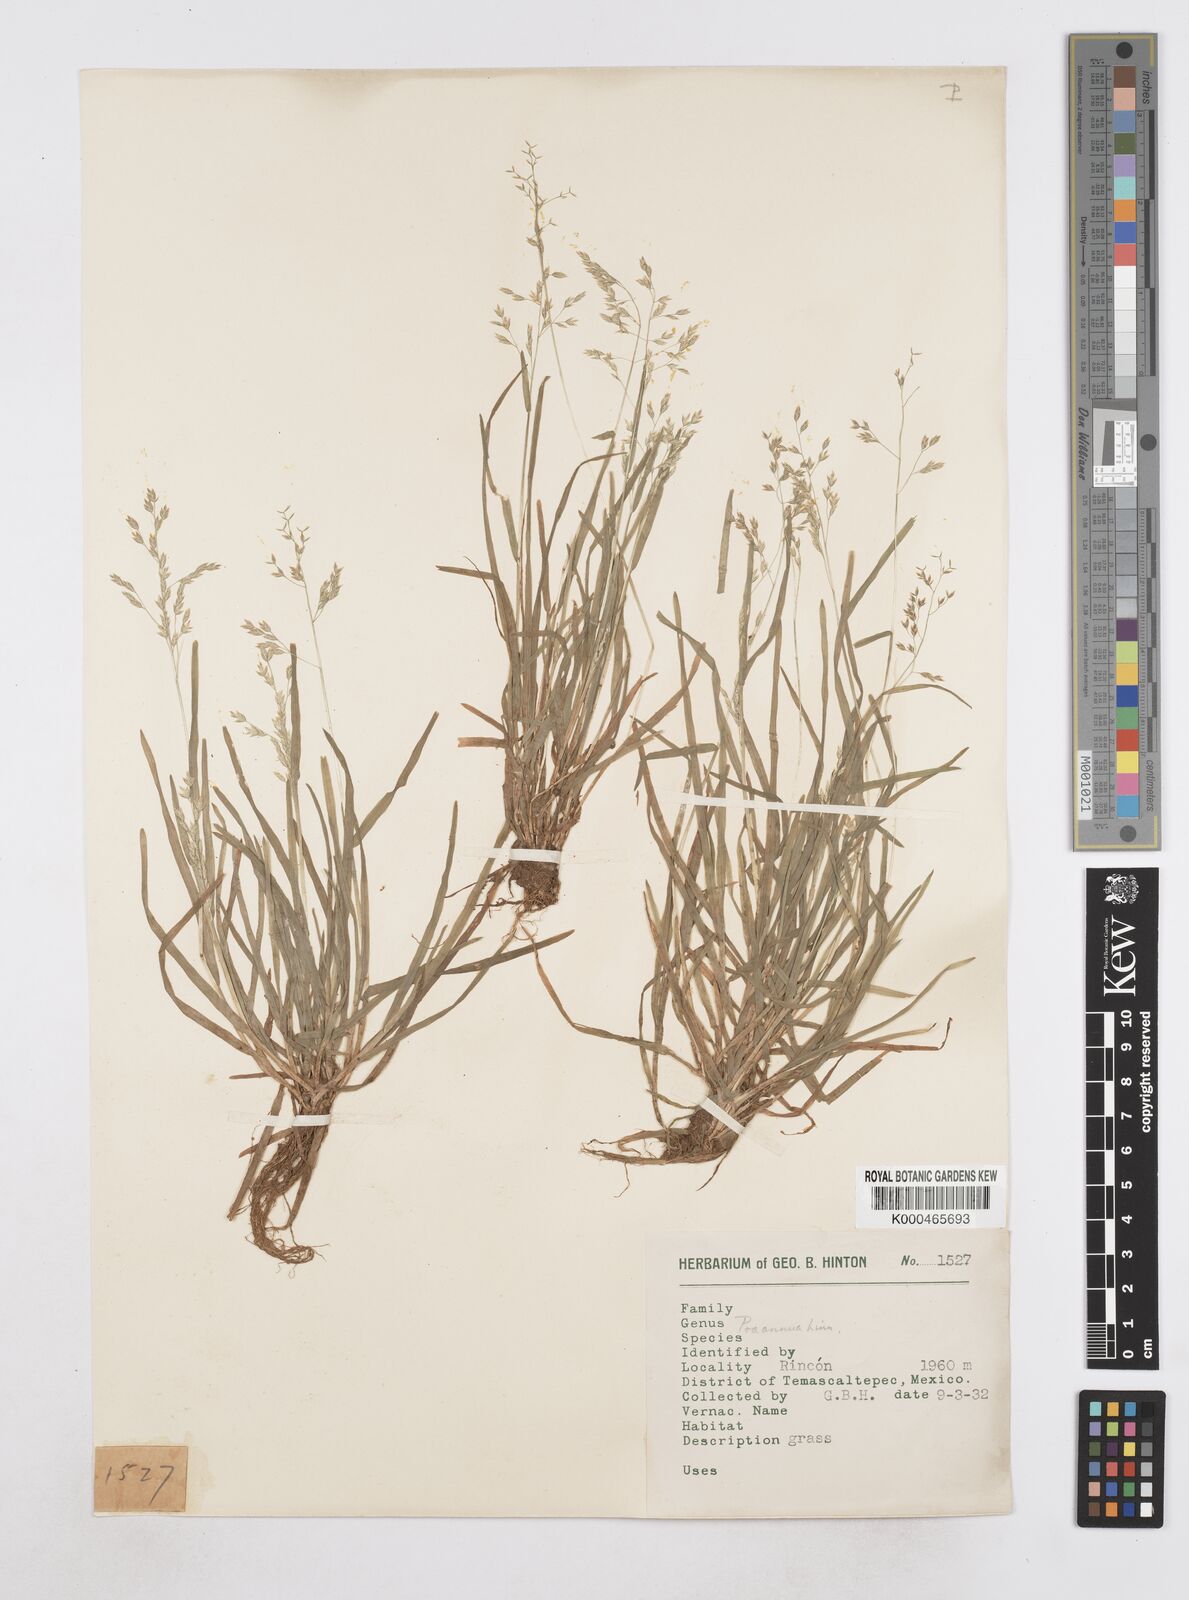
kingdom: Plantae
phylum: Tracheophyta
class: Liliopsida
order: Poales
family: Poaceae
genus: Poa
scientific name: Poa annua
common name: Annual bluegrass
